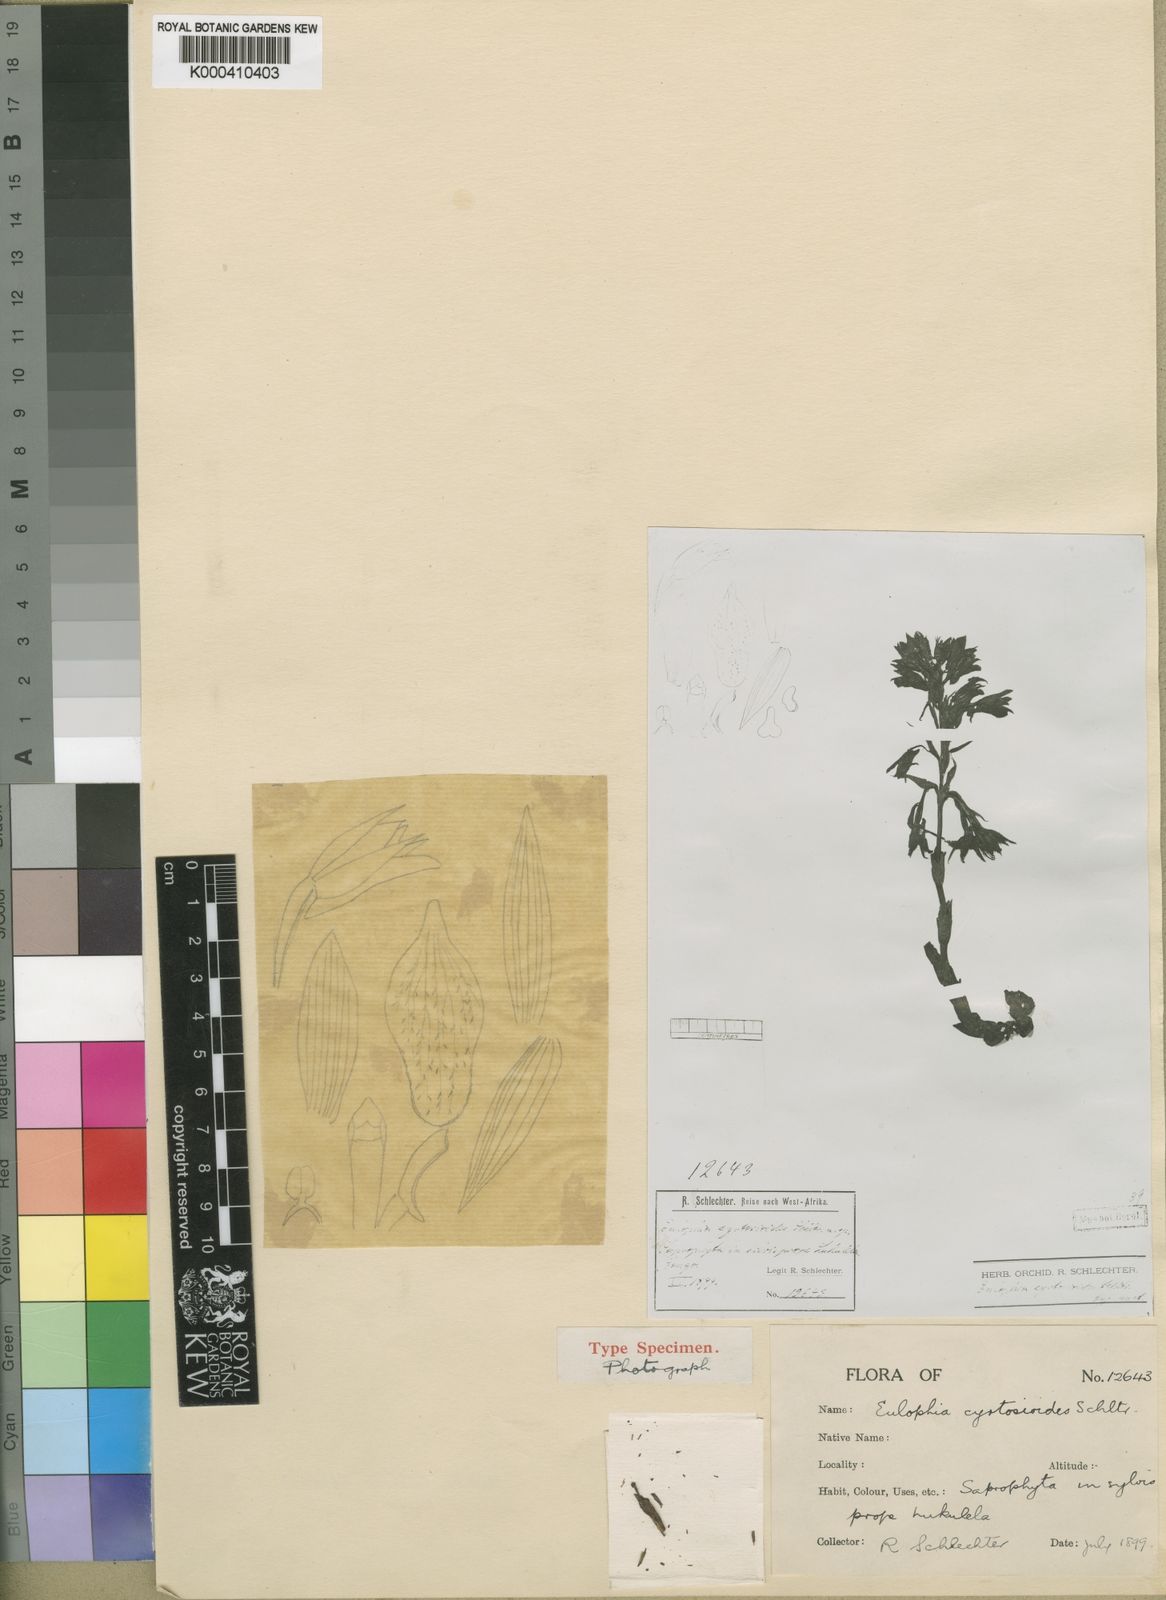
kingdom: Plantae
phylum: Tracheophyta
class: Liliopsida
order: Asparagales
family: Orchidaceae
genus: Eulophia
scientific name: Eulophia galeoloides
